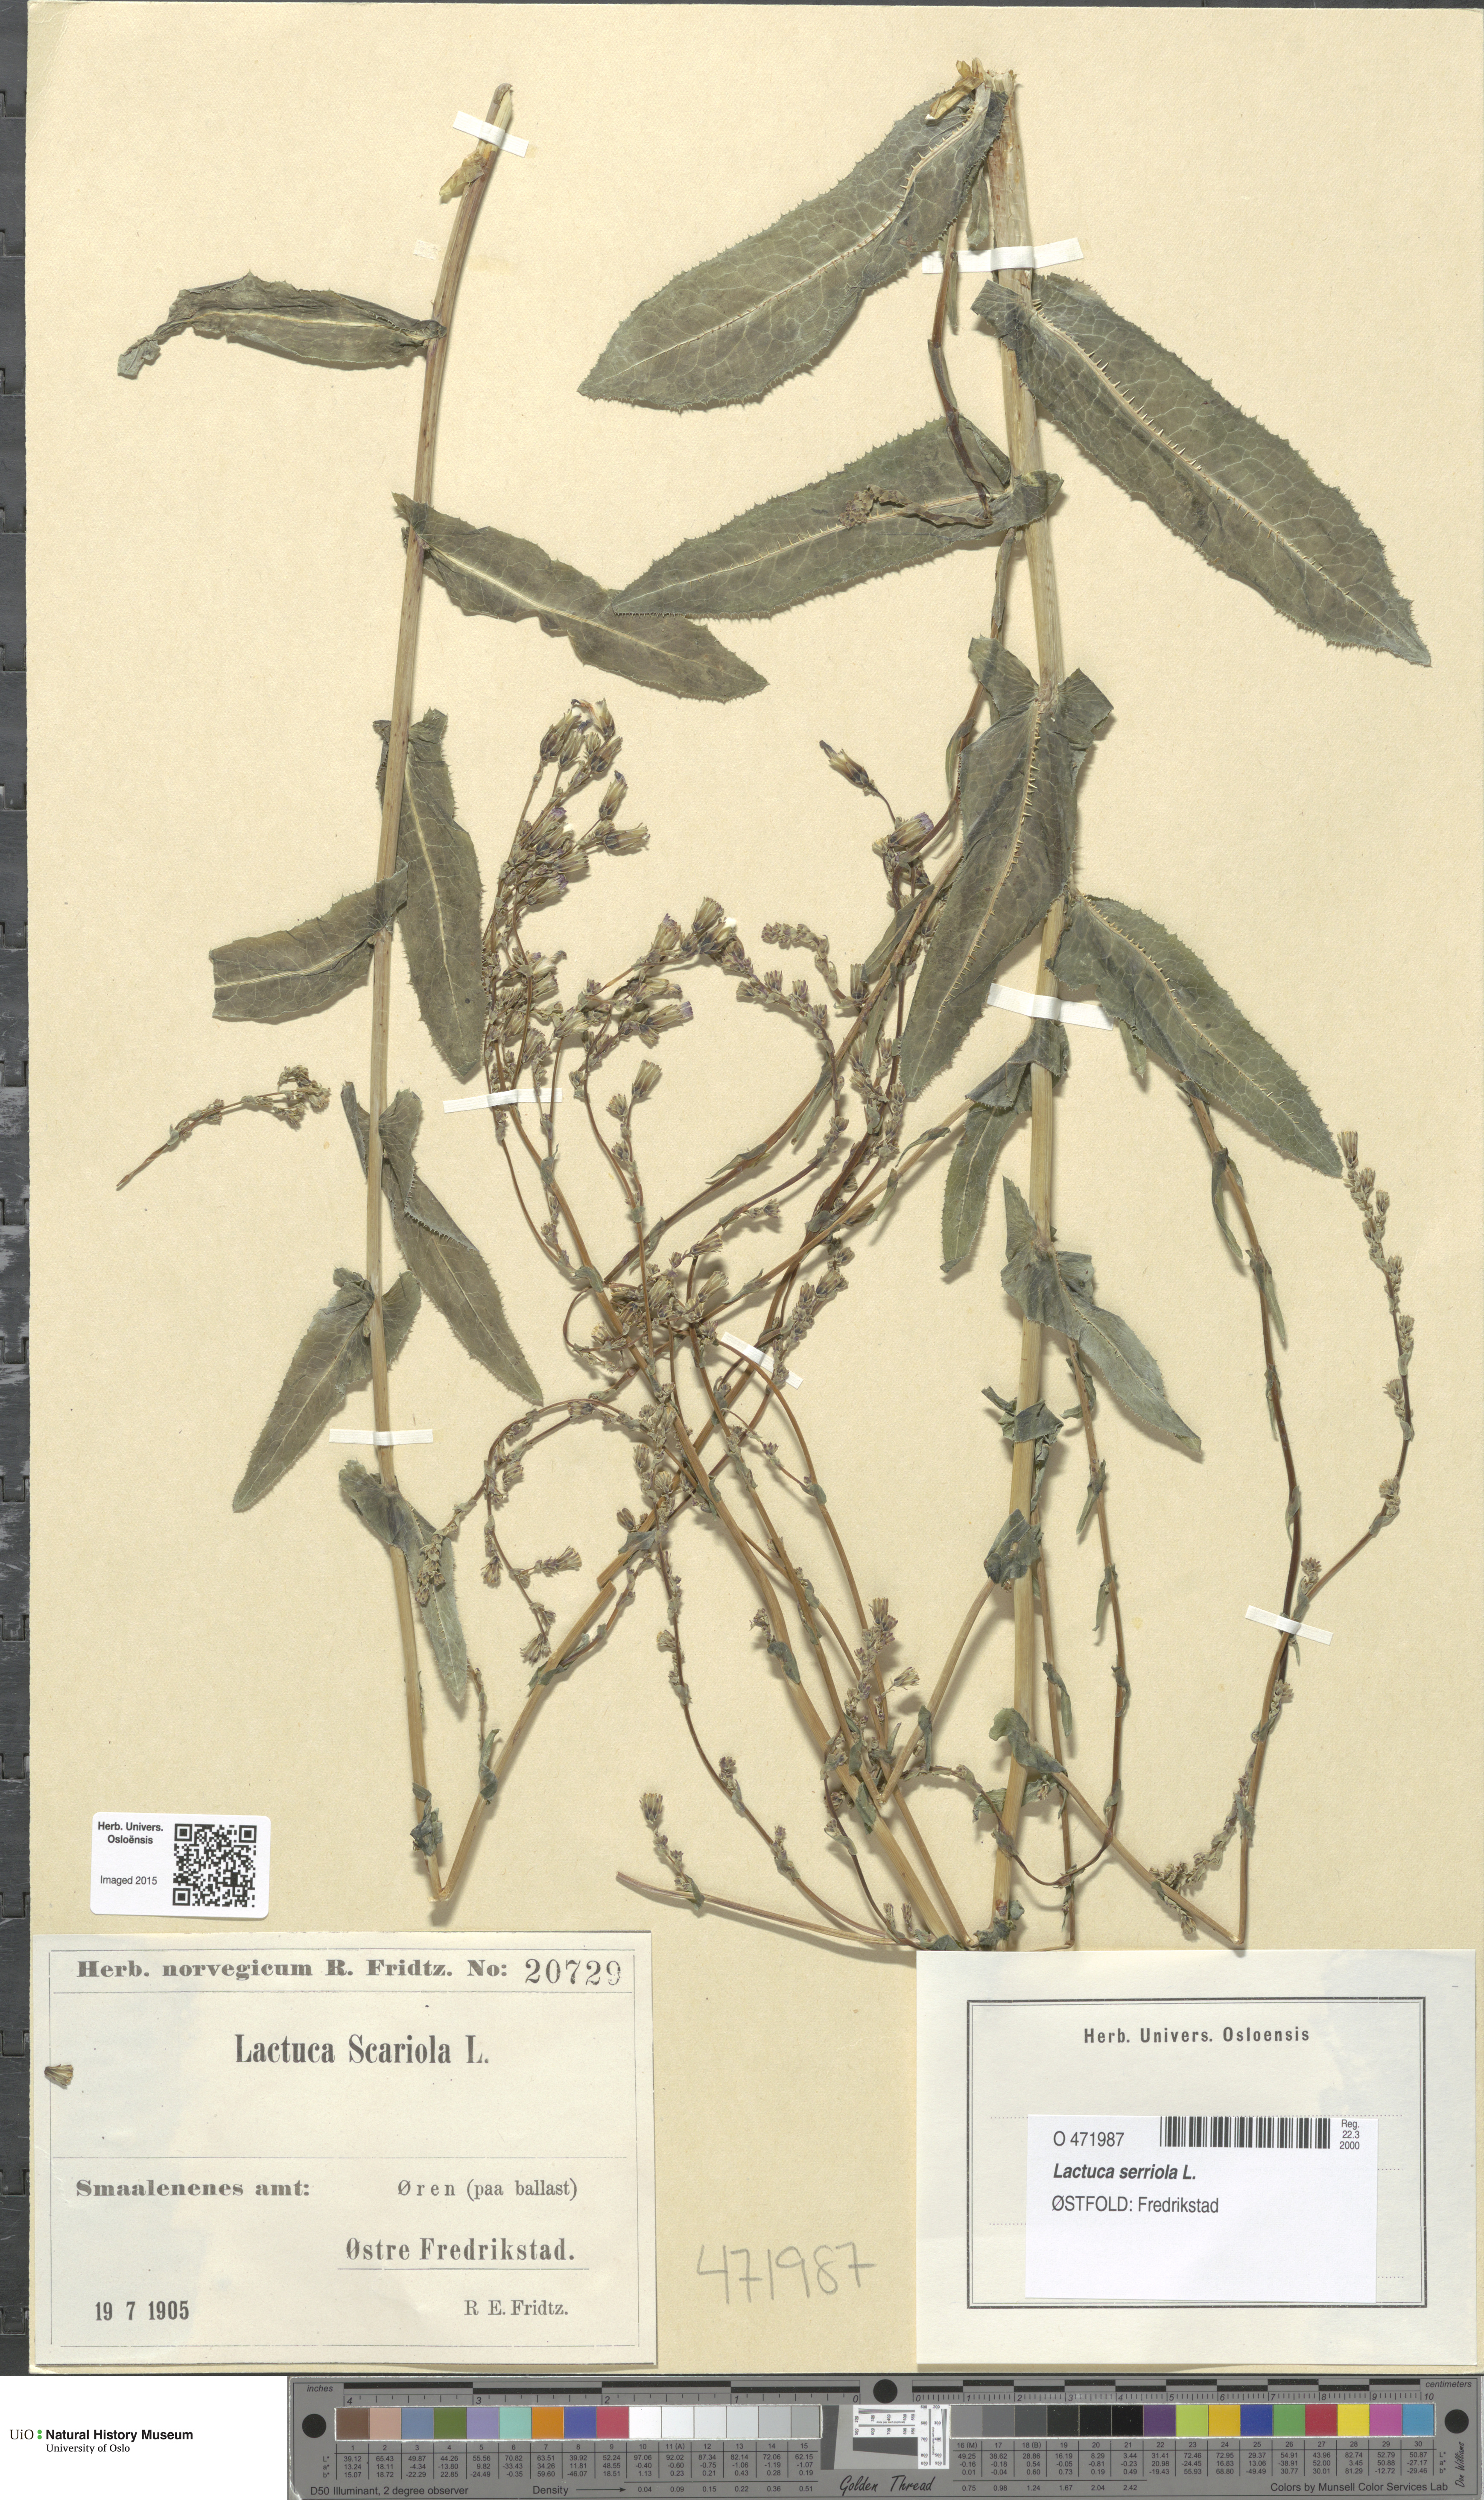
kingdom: Plantae
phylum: Tracheophyta
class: Magnoliopsida
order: Asterales
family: Asteraceae
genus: Lactuca
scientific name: Lactuca serriola
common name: Prickly lettuce
